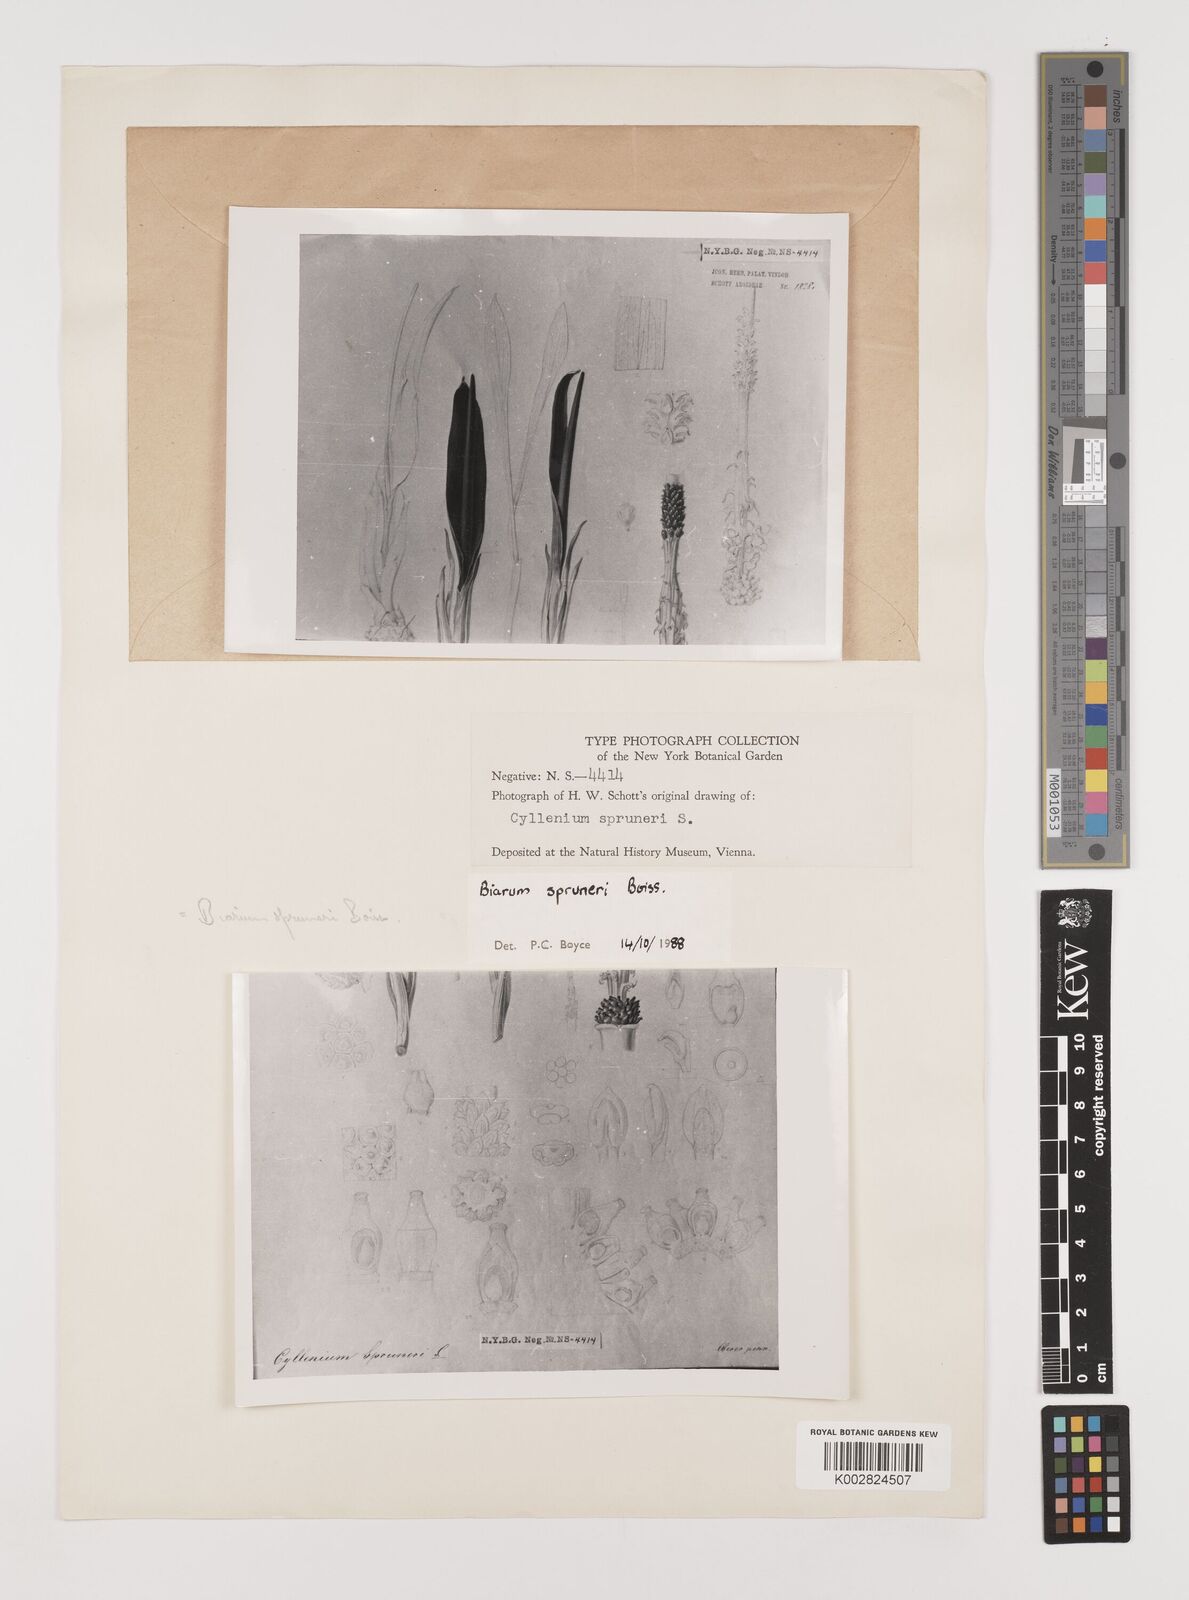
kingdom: Plantae
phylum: Tracheophyta
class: Liliopsida
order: Alismatales
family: Araceae
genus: Biarum
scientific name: Biarum rhopalospadix
